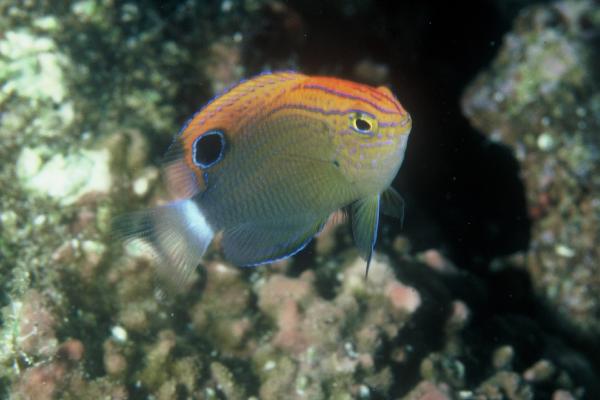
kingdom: Animalia
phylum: Chordata
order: Perciformes
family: Pomacentridae
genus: Pomacentrus
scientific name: Pomacentrus bankanensis
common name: Speckled damsel
